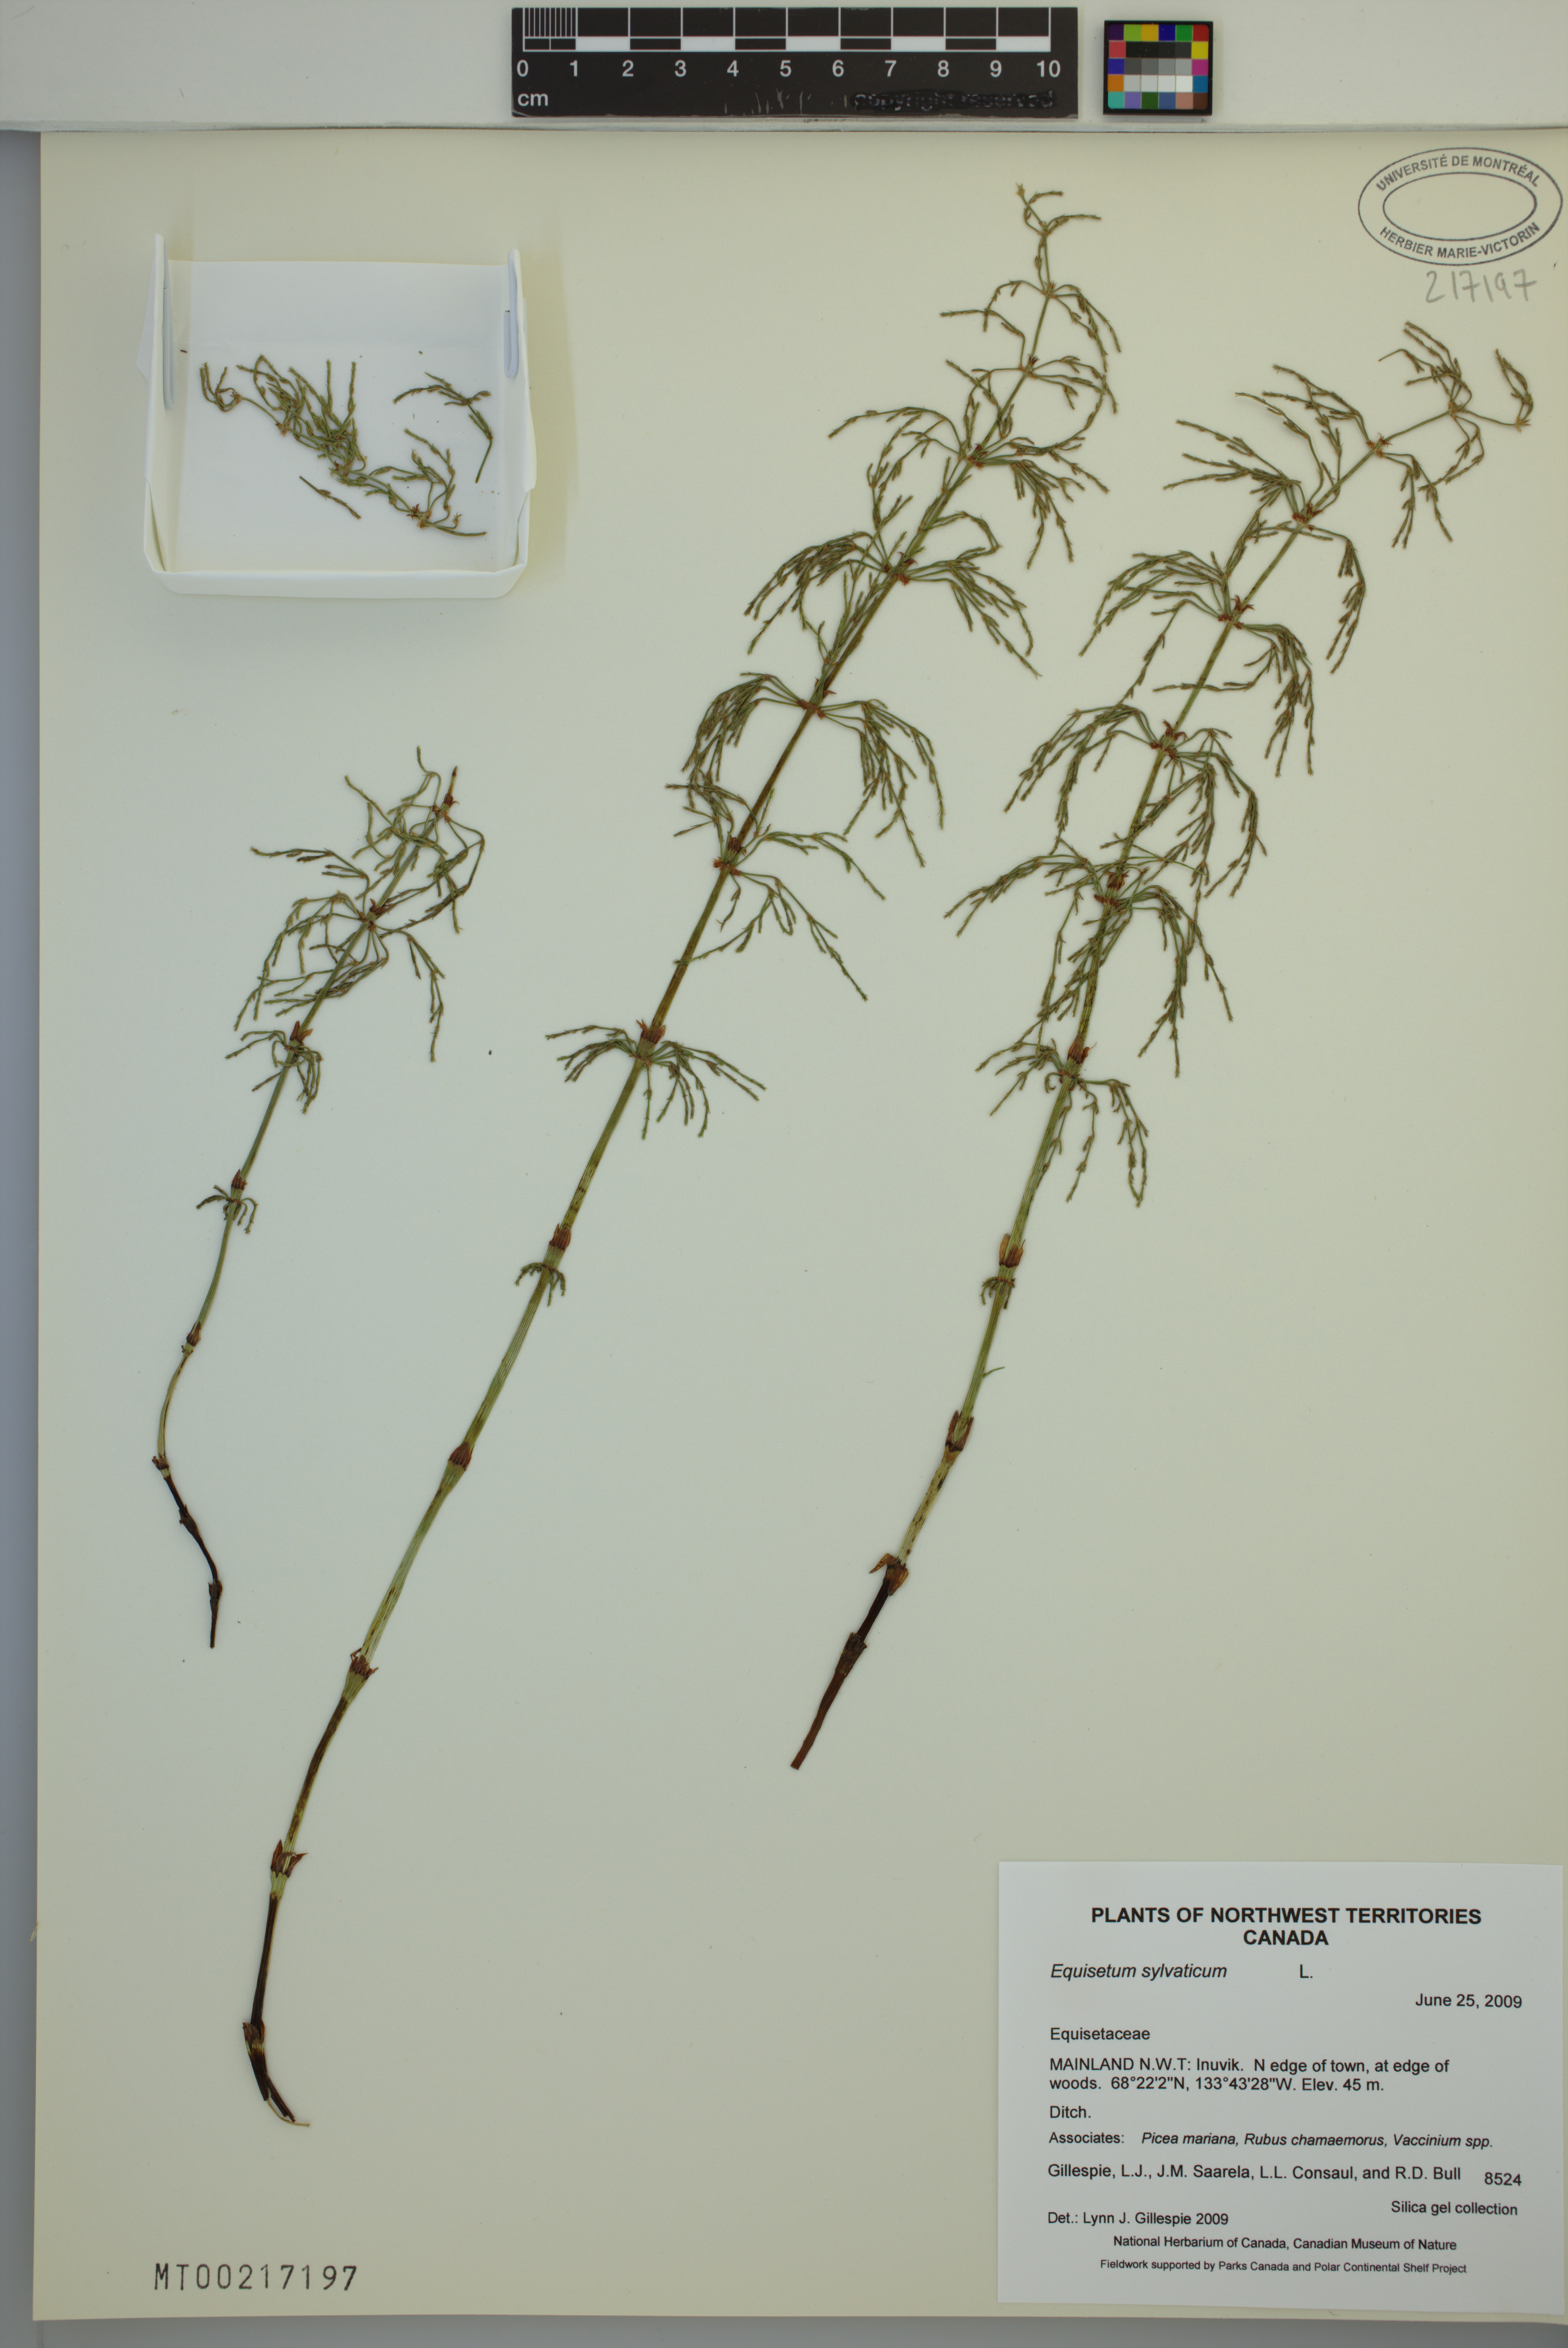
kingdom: Plantae
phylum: Tracheophyta
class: Polypodiopsida
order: Equisetales
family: Equisetaceae
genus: Equisetum
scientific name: Equisetum sylvaticum
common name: Wood horsetail
